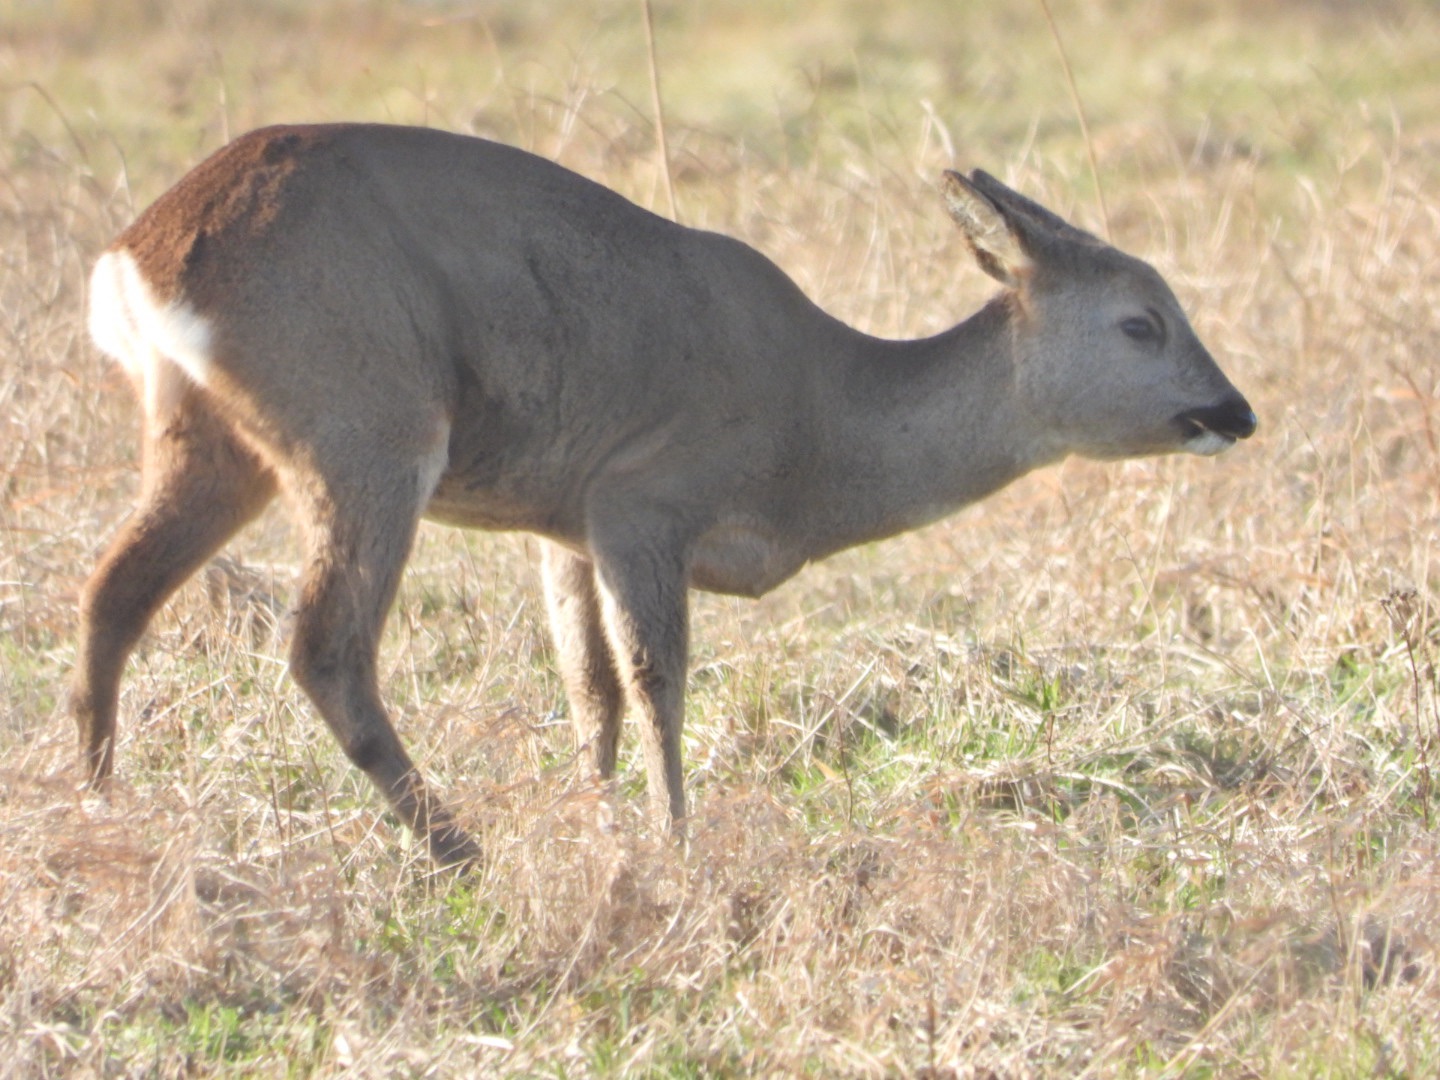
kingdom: Animalia
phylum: Chordata
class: Mammalia
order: Artiodactyla
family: Cervidae
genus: Capreolus
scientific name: Capreolus capreolus
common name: Rådyr
